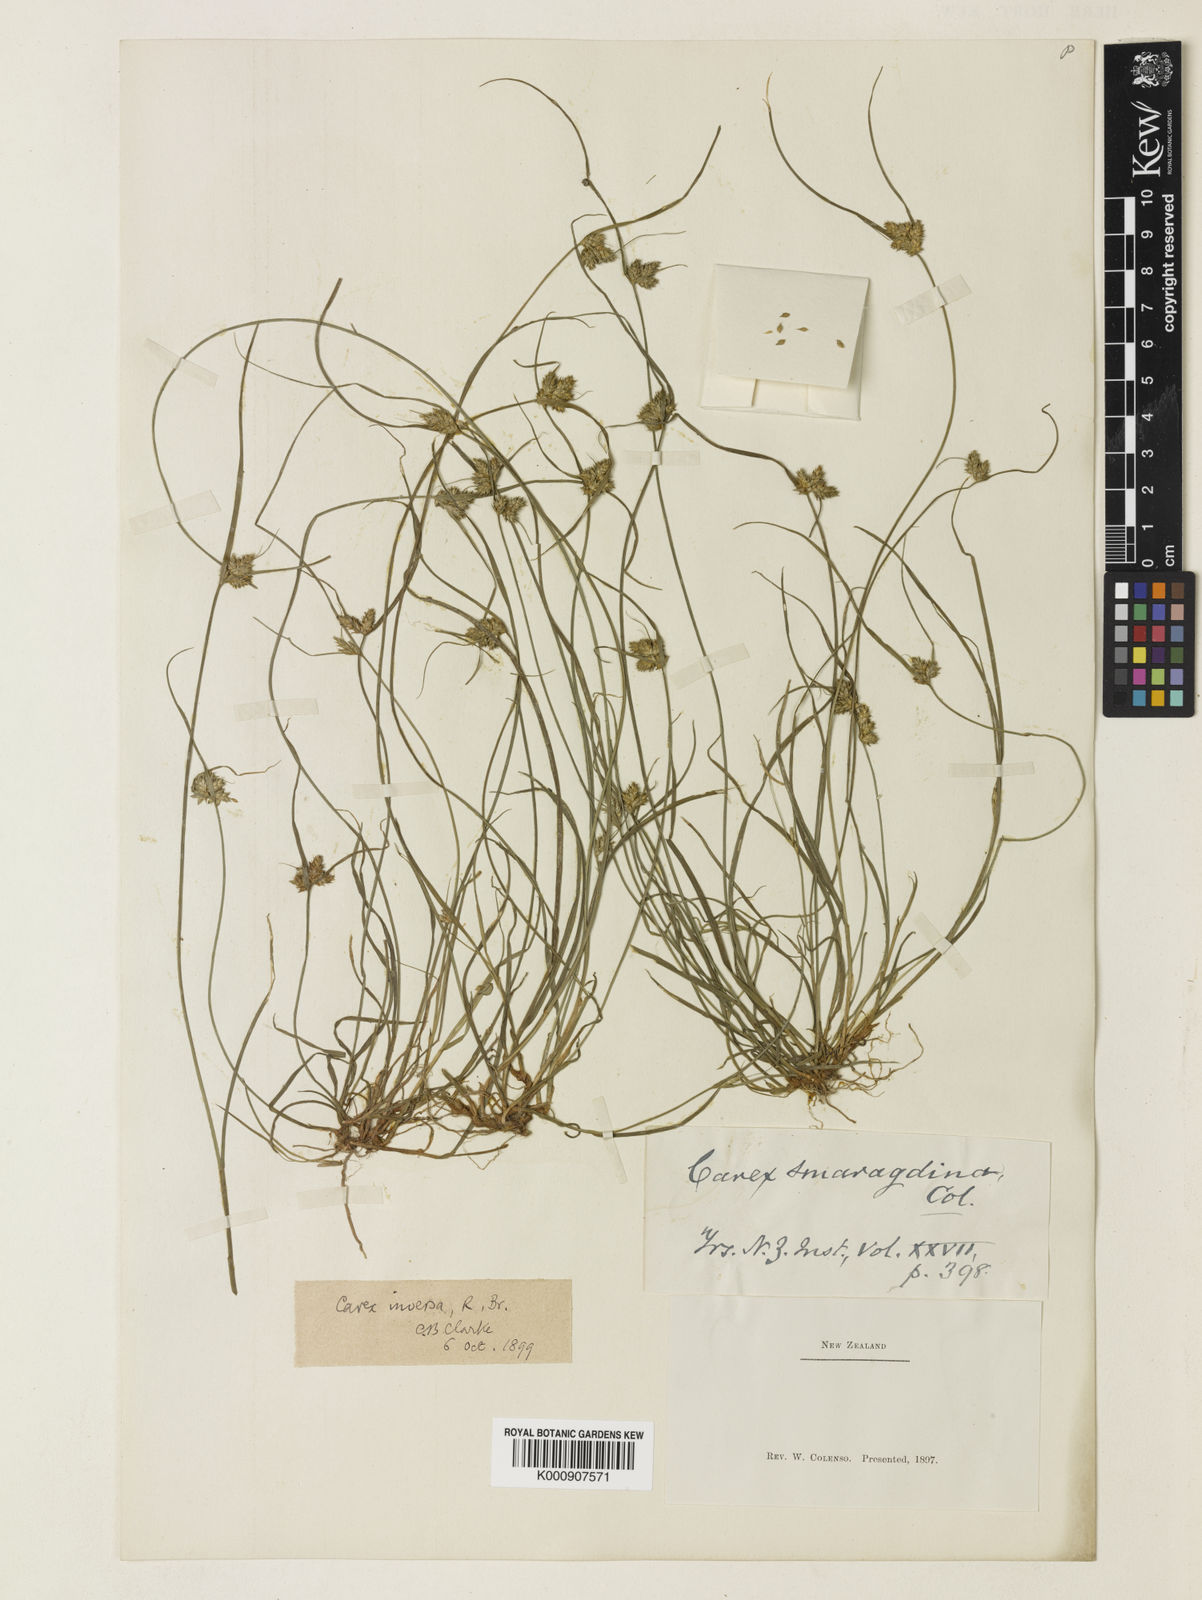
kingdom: Plantae
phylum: Tracheophyta
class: Liliopsida
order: Poales
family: Cyperaceae
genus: Carex
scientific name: Carex inversa
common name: Knob sedge
